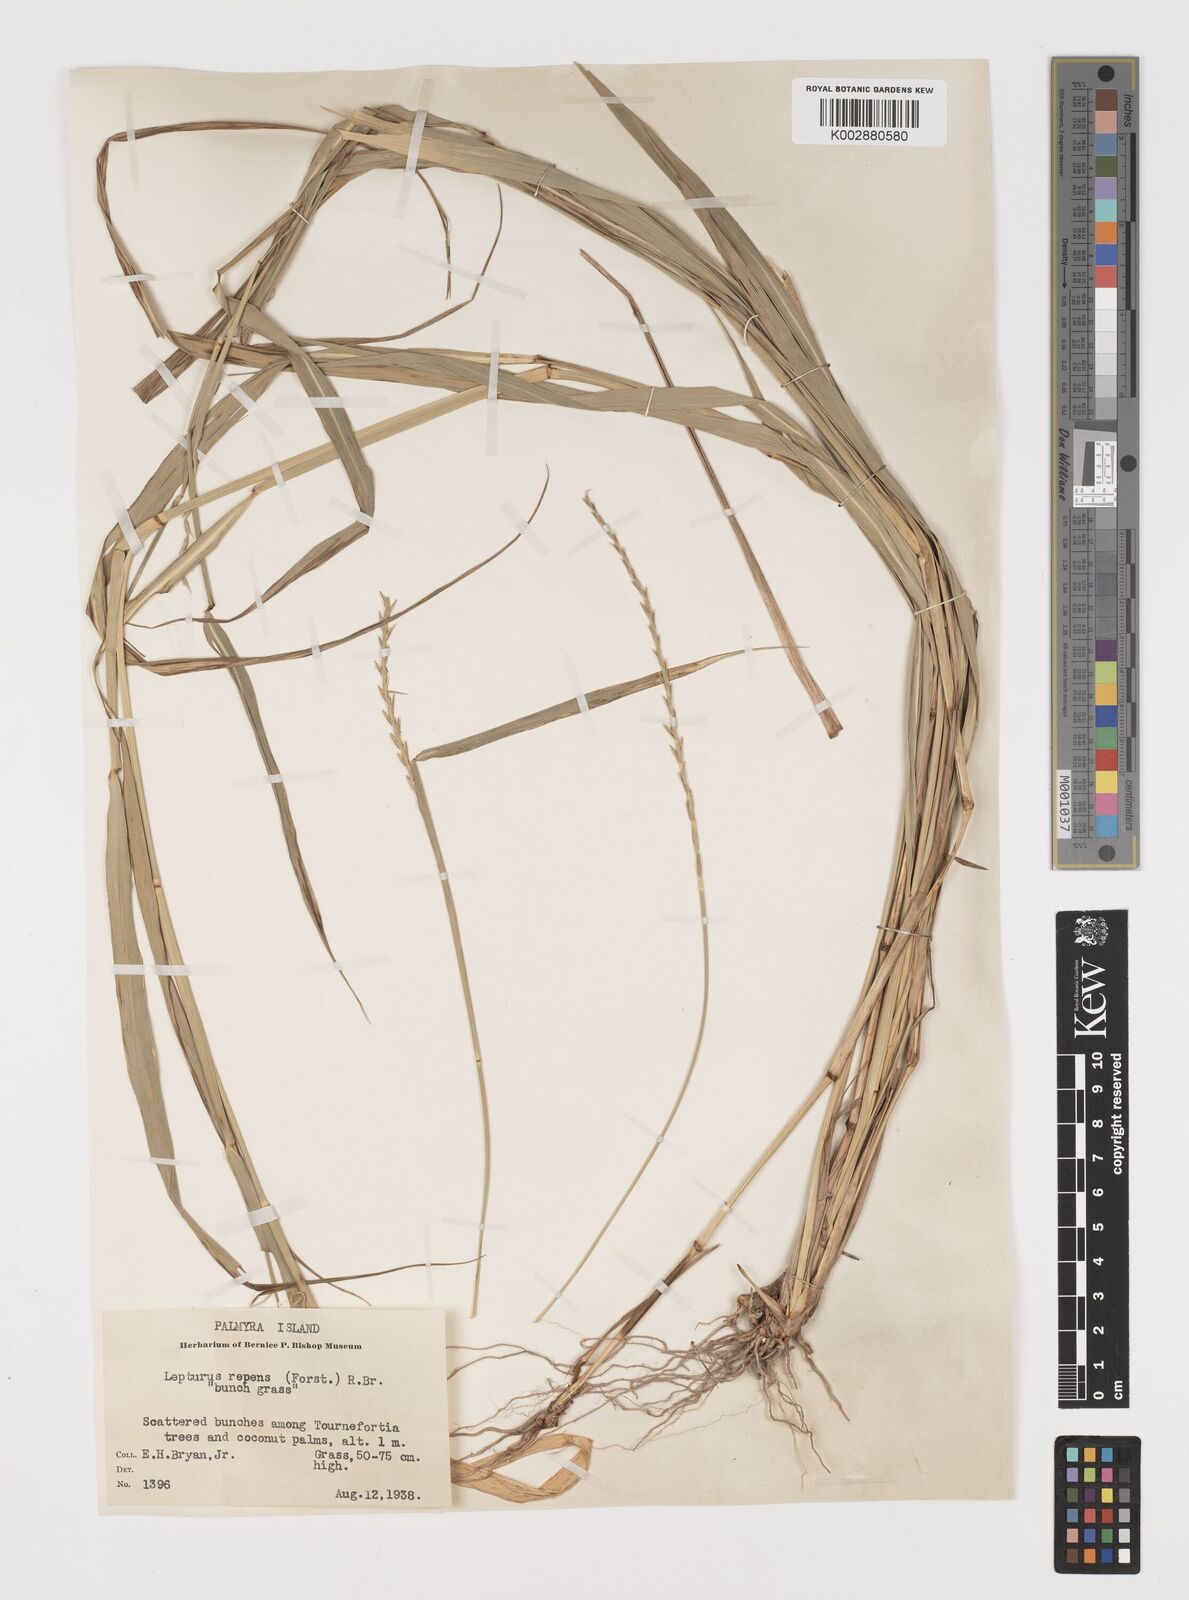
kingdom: Plantae
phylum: Tracheophyta
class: Liliopsida
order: Poales
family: Poaceae
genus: Lepturus
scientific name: Lepturus repens
